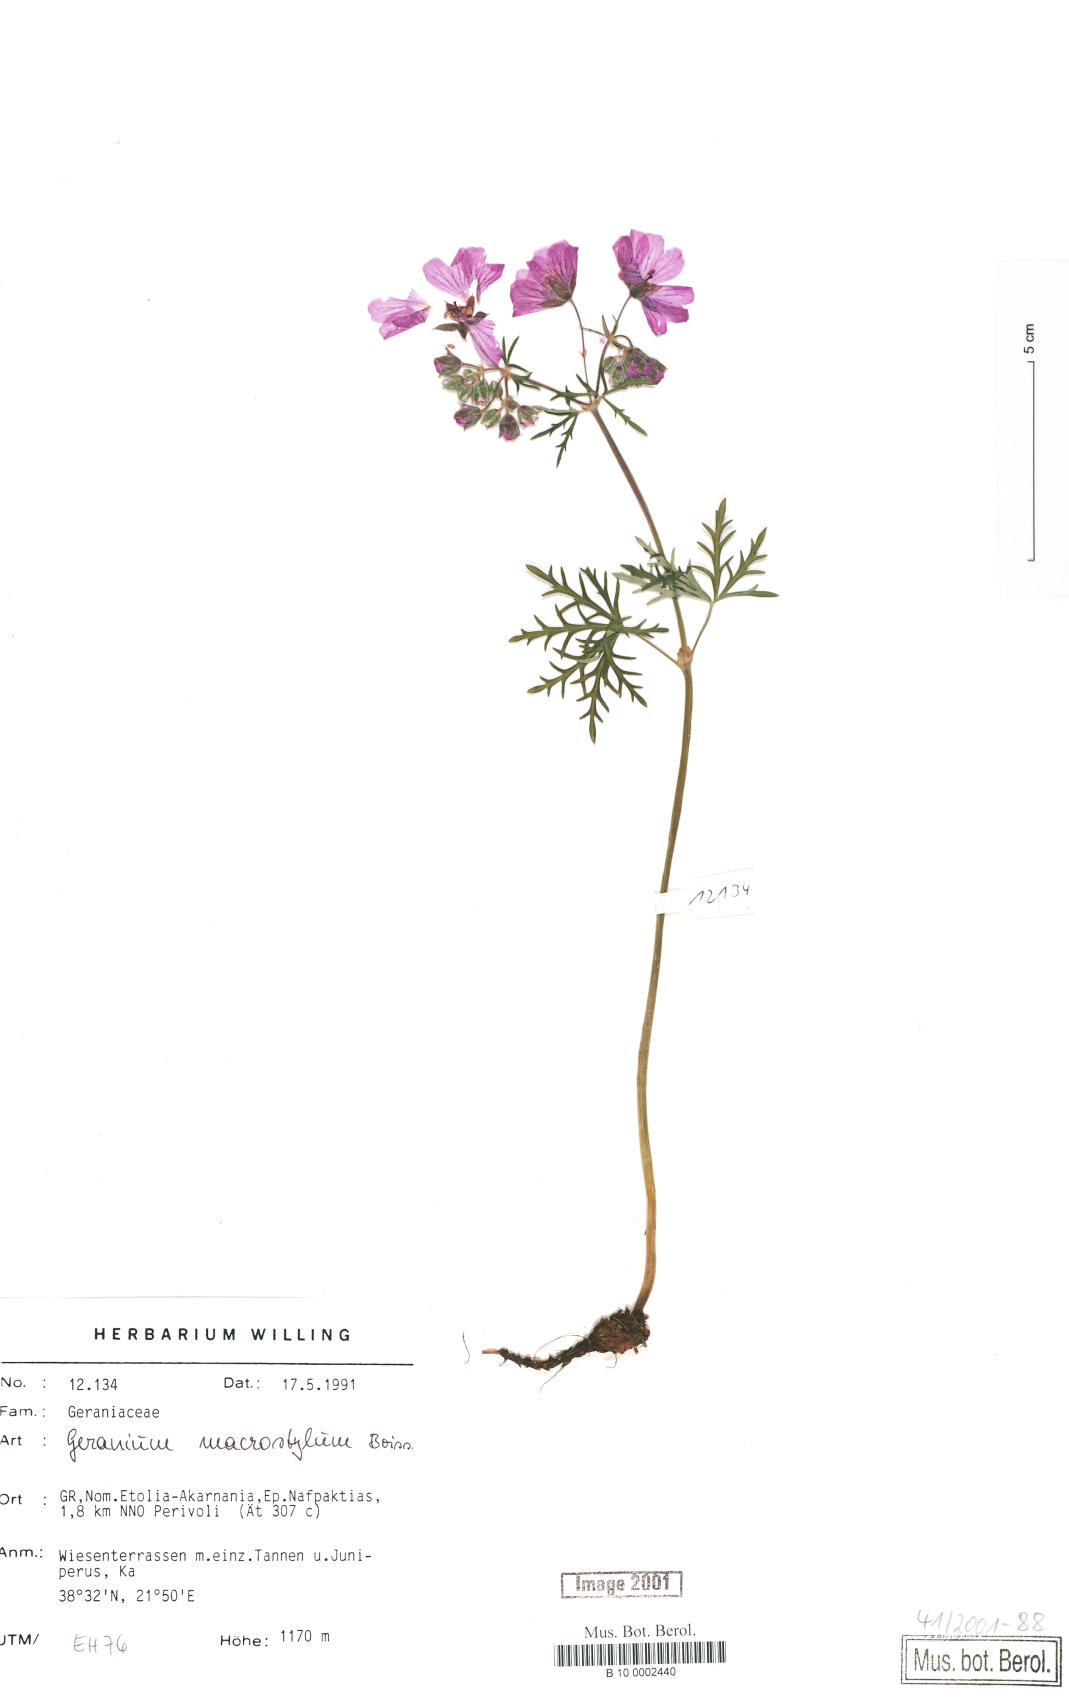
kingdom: Plantae
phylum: Tracheophyta
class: Magnoliopsida
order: Geraniales
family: Geraniaceae
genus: Geranium
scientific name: Geranium macrostylum
